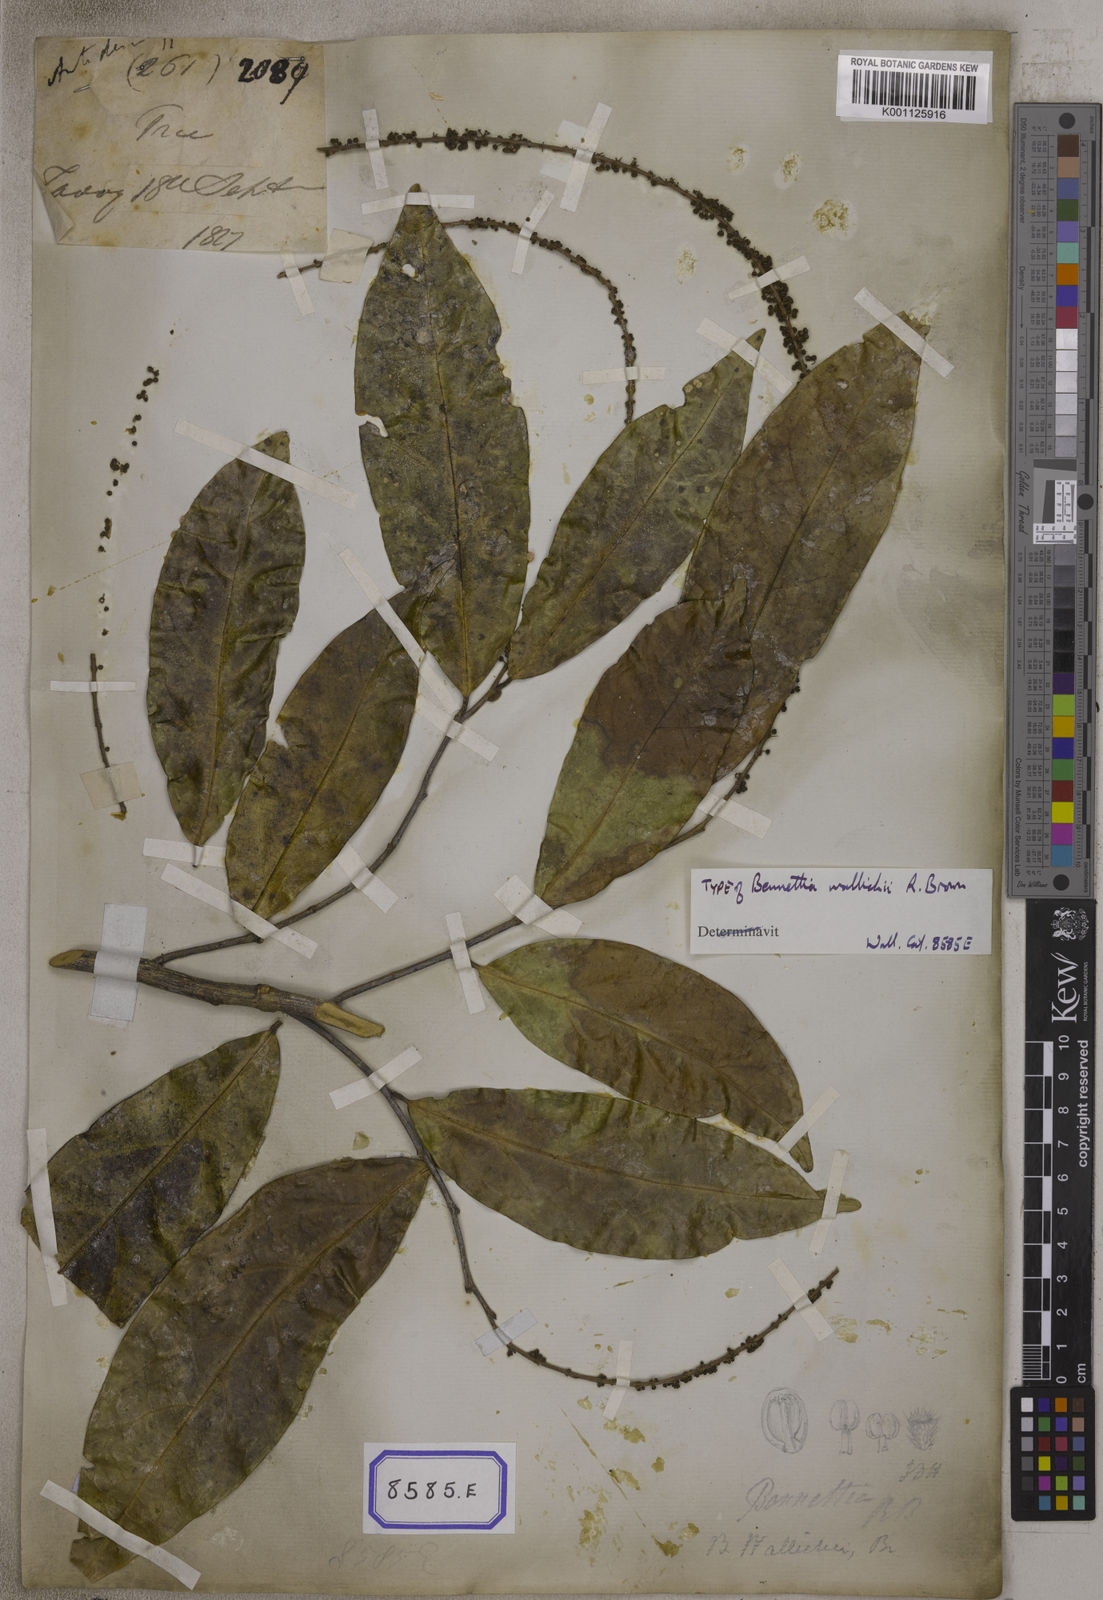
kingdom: Plantae
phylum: Tracheophyta
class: Magnoliopsida
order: Malpighiales
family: Pandaceae
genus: Galearia
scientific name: Galearia
